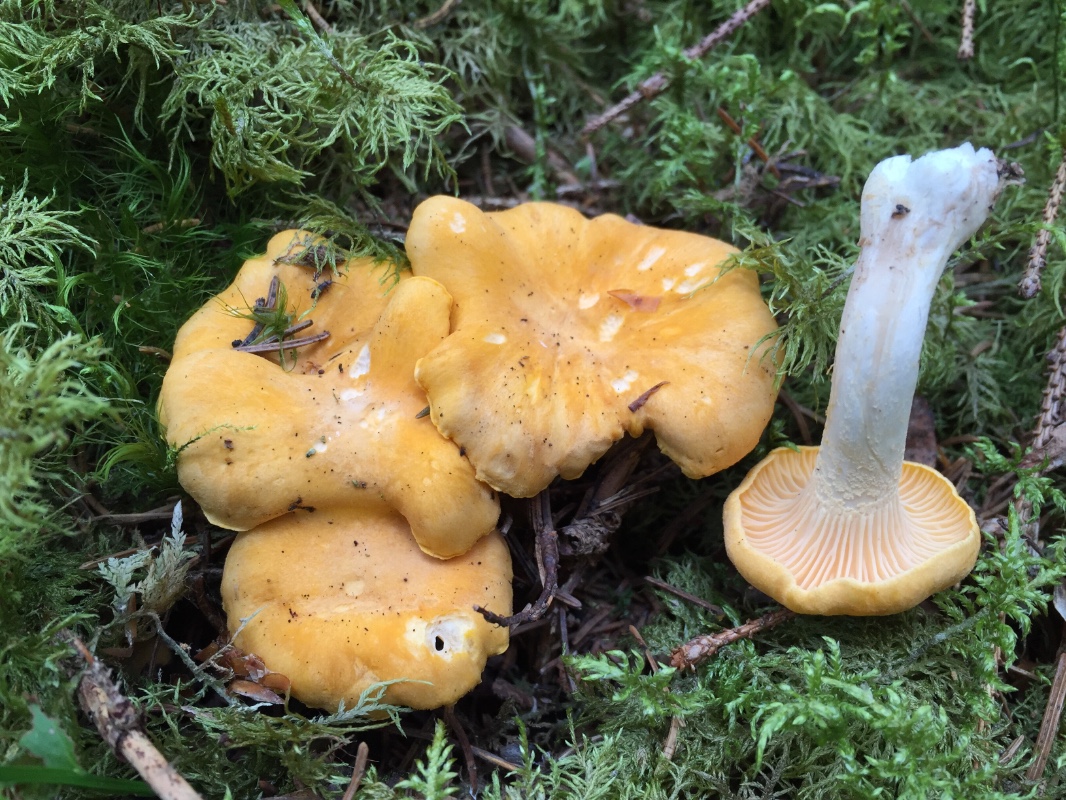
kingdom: Fungi
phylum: Basidiomycota
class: Agaricomycetes
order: Cantharellales
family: Hydnaceae
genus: Cantharellus
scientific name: Cantharellus cibarius
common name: almindelig kantarel
